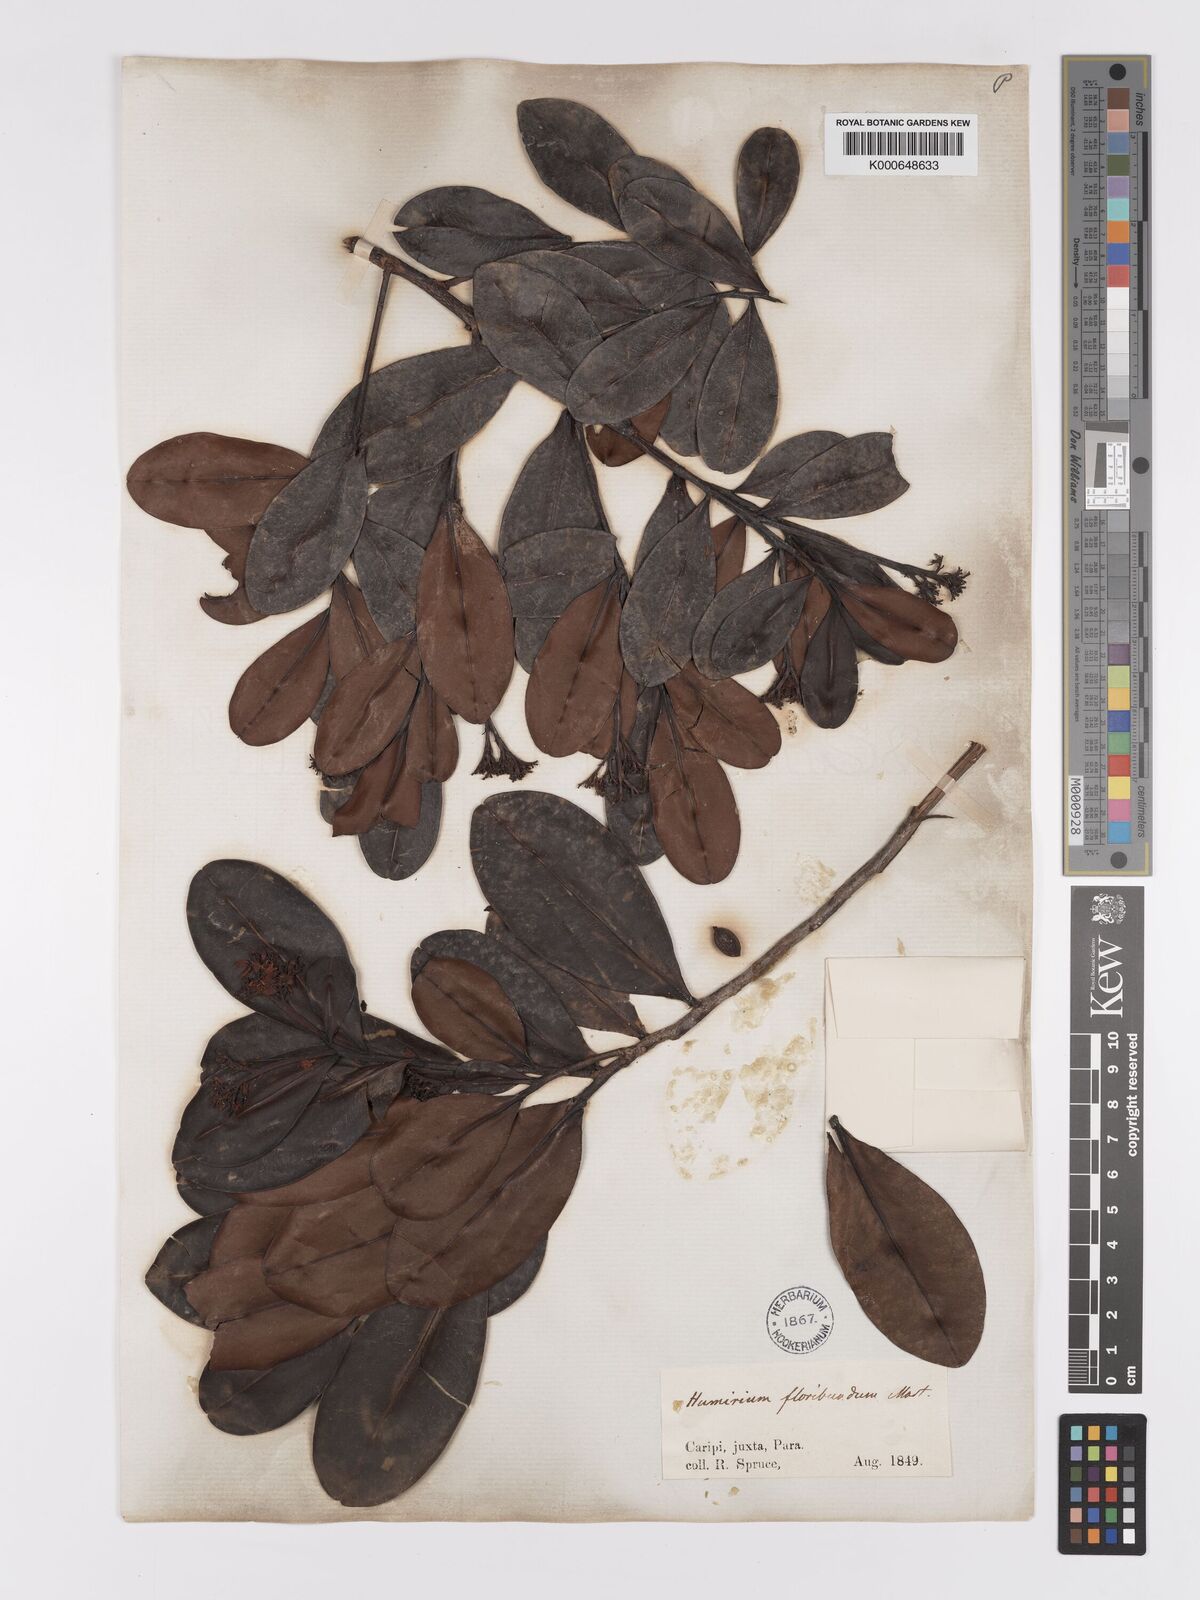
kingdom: Plantae
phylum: Tracheophyta
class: Magnoliopsida
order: Malpighiales
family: Humiriaceae
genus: Humiria
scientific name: Humiria balsamifera
